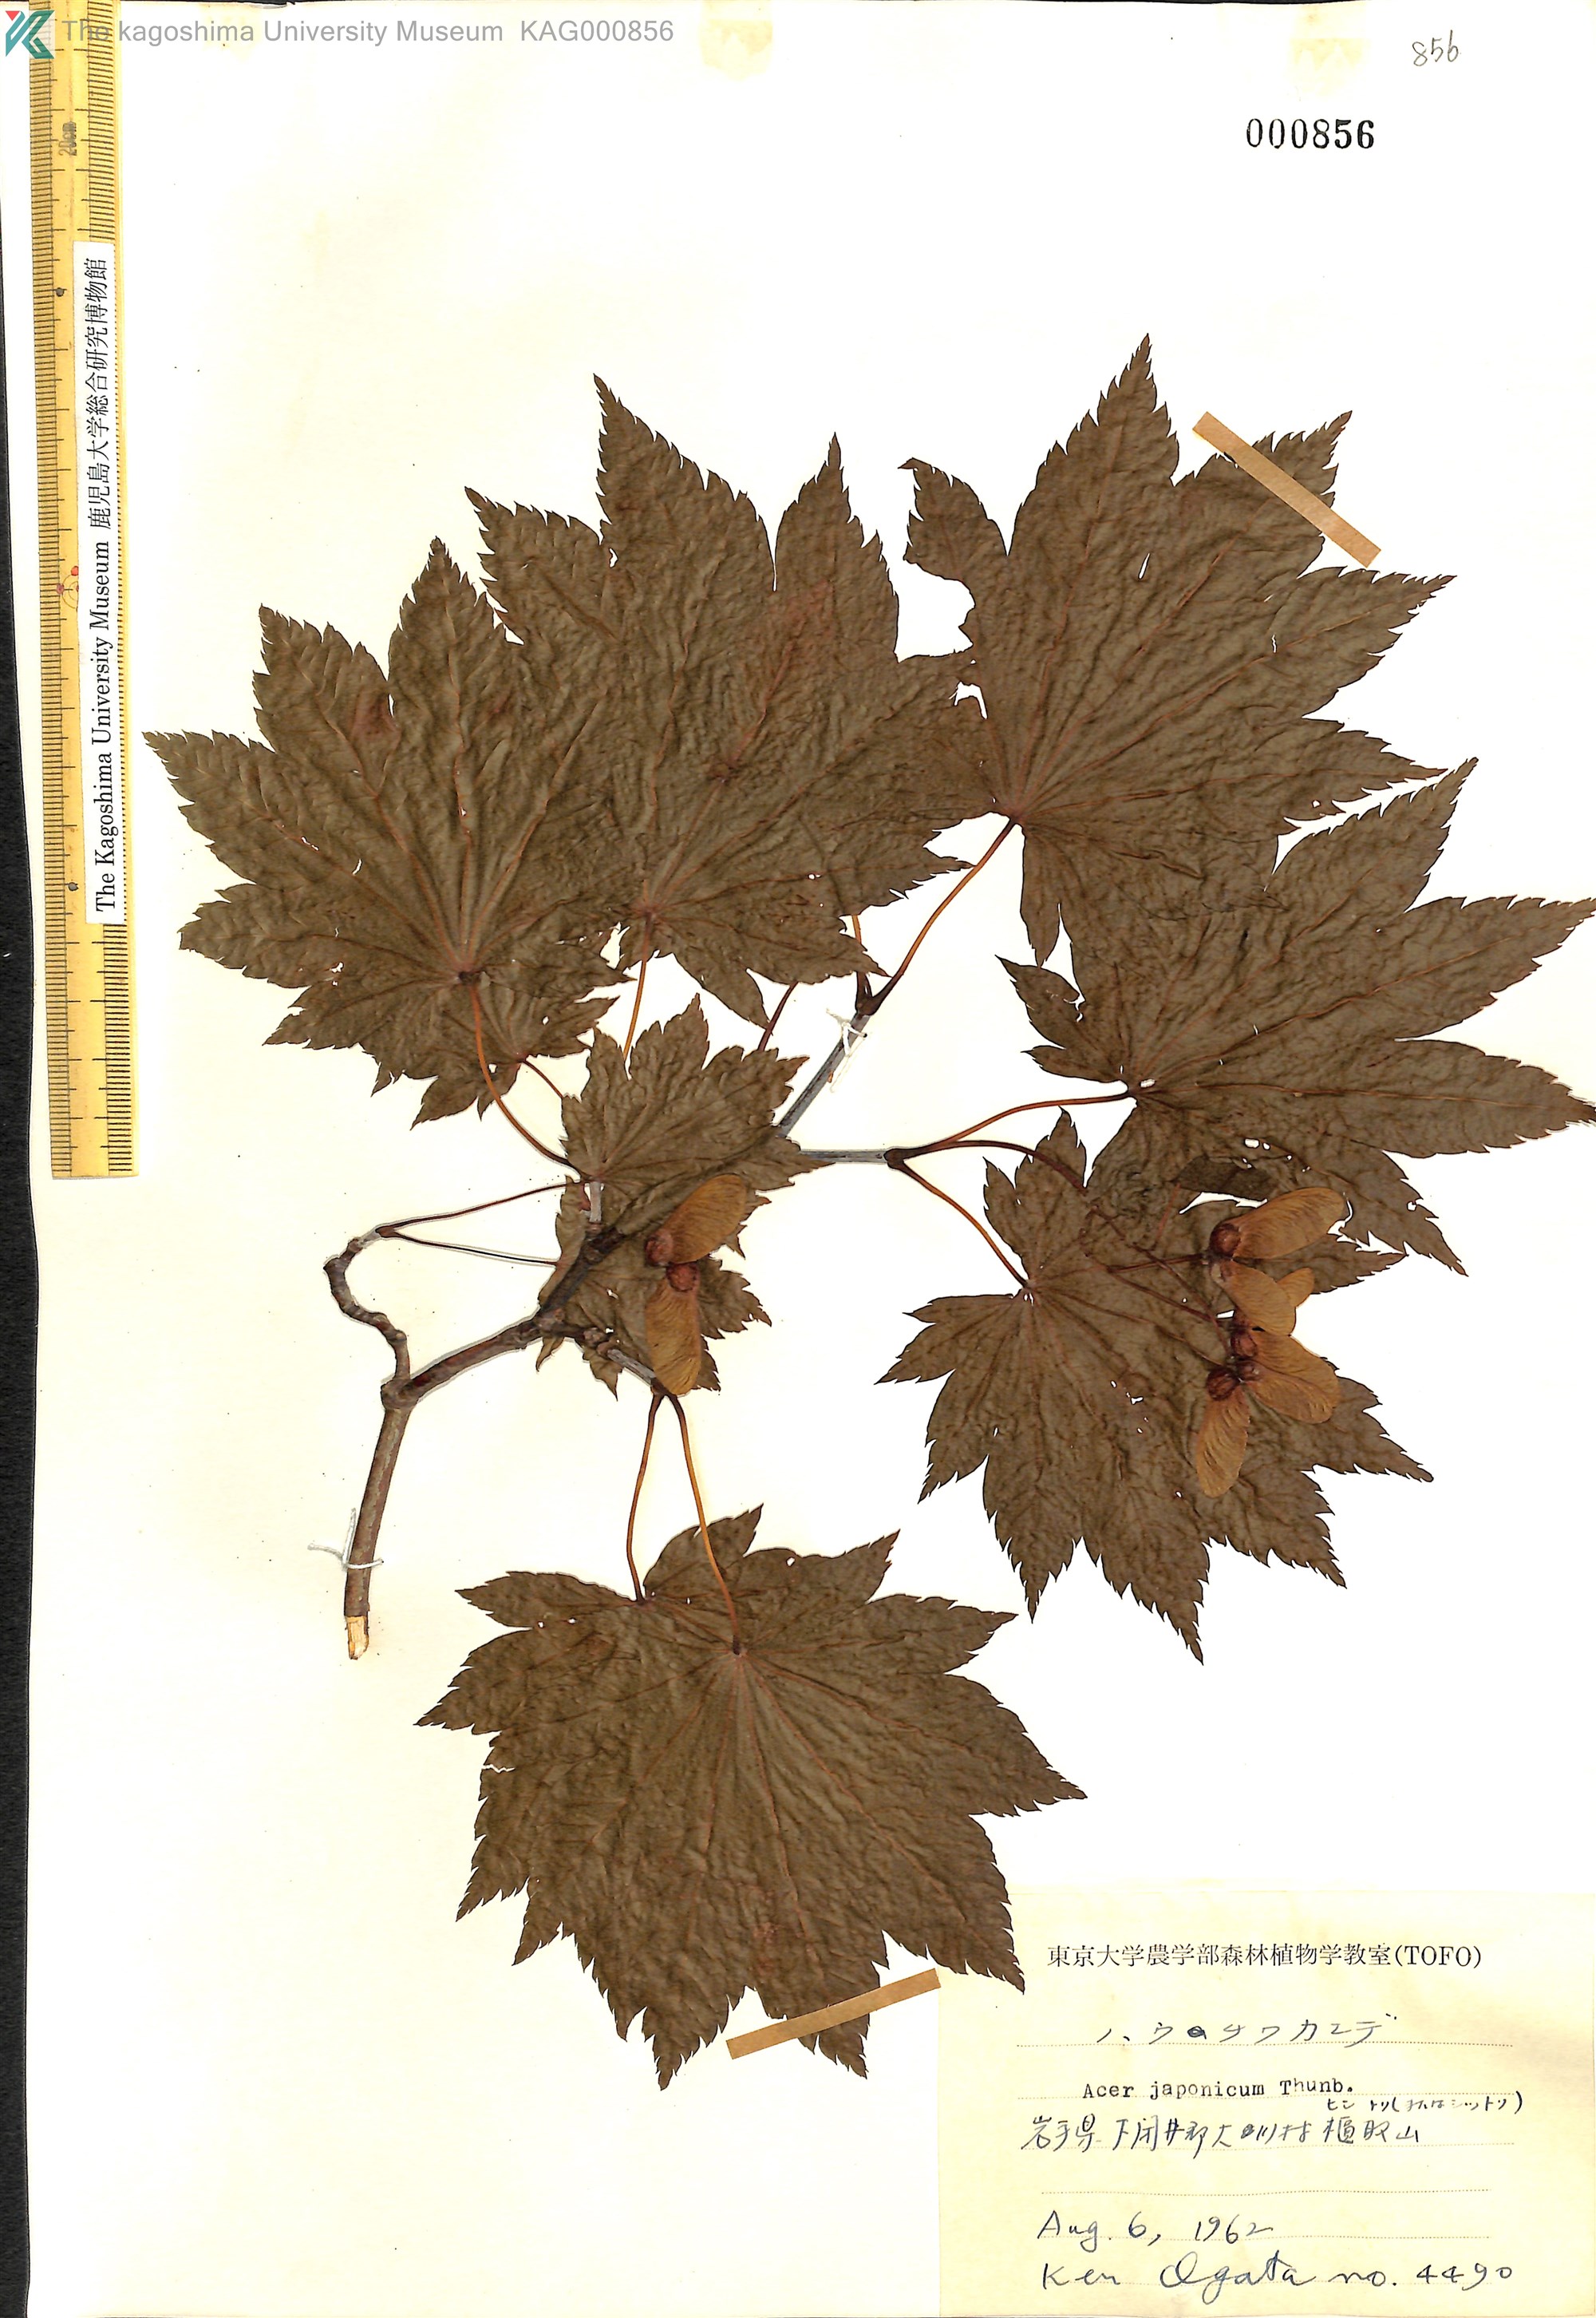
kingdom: Plantae
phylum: Tracheophyta
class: Magnoliopsida
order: Sapindales
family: Sapindaceae
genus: Acer
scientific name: Acer japonicum
